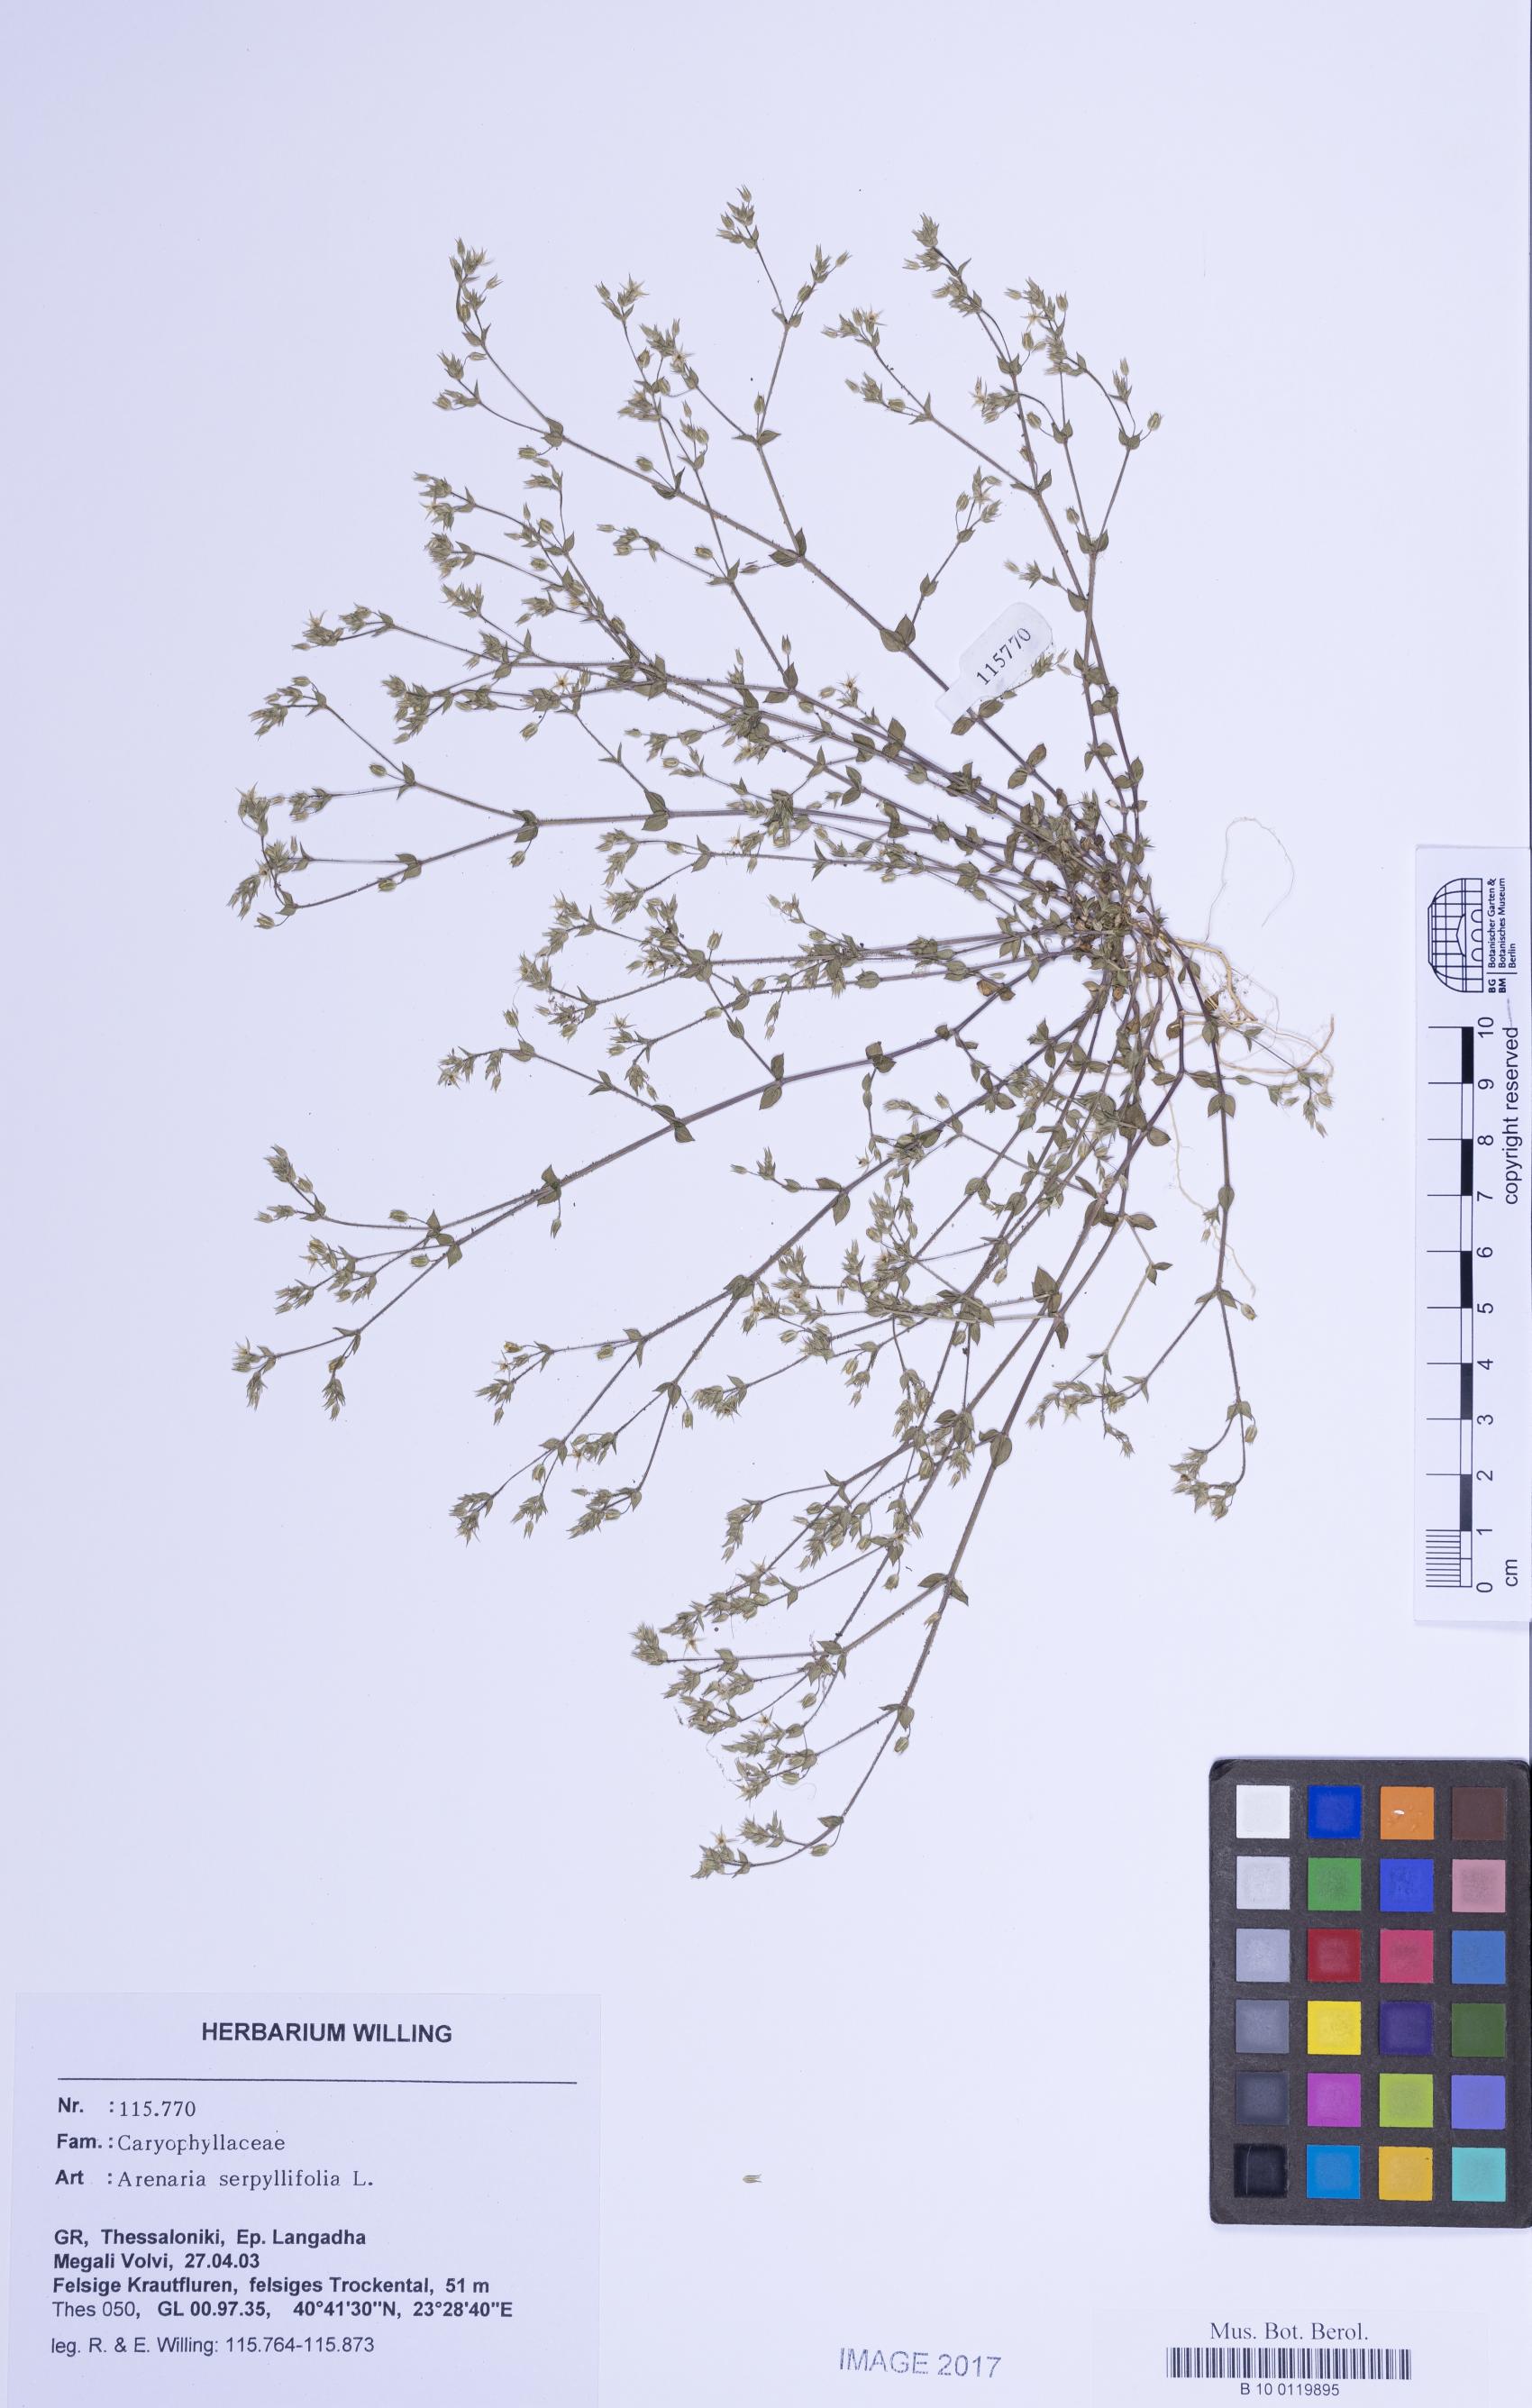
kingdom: Plantae
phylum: Tracheophyta
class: Magnoliopsida
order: Caryophyllales
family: Caryophyllaceae
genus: Arenaria
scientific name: Arenaria serpyllifolia
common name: Thyme-leaved sandwort
